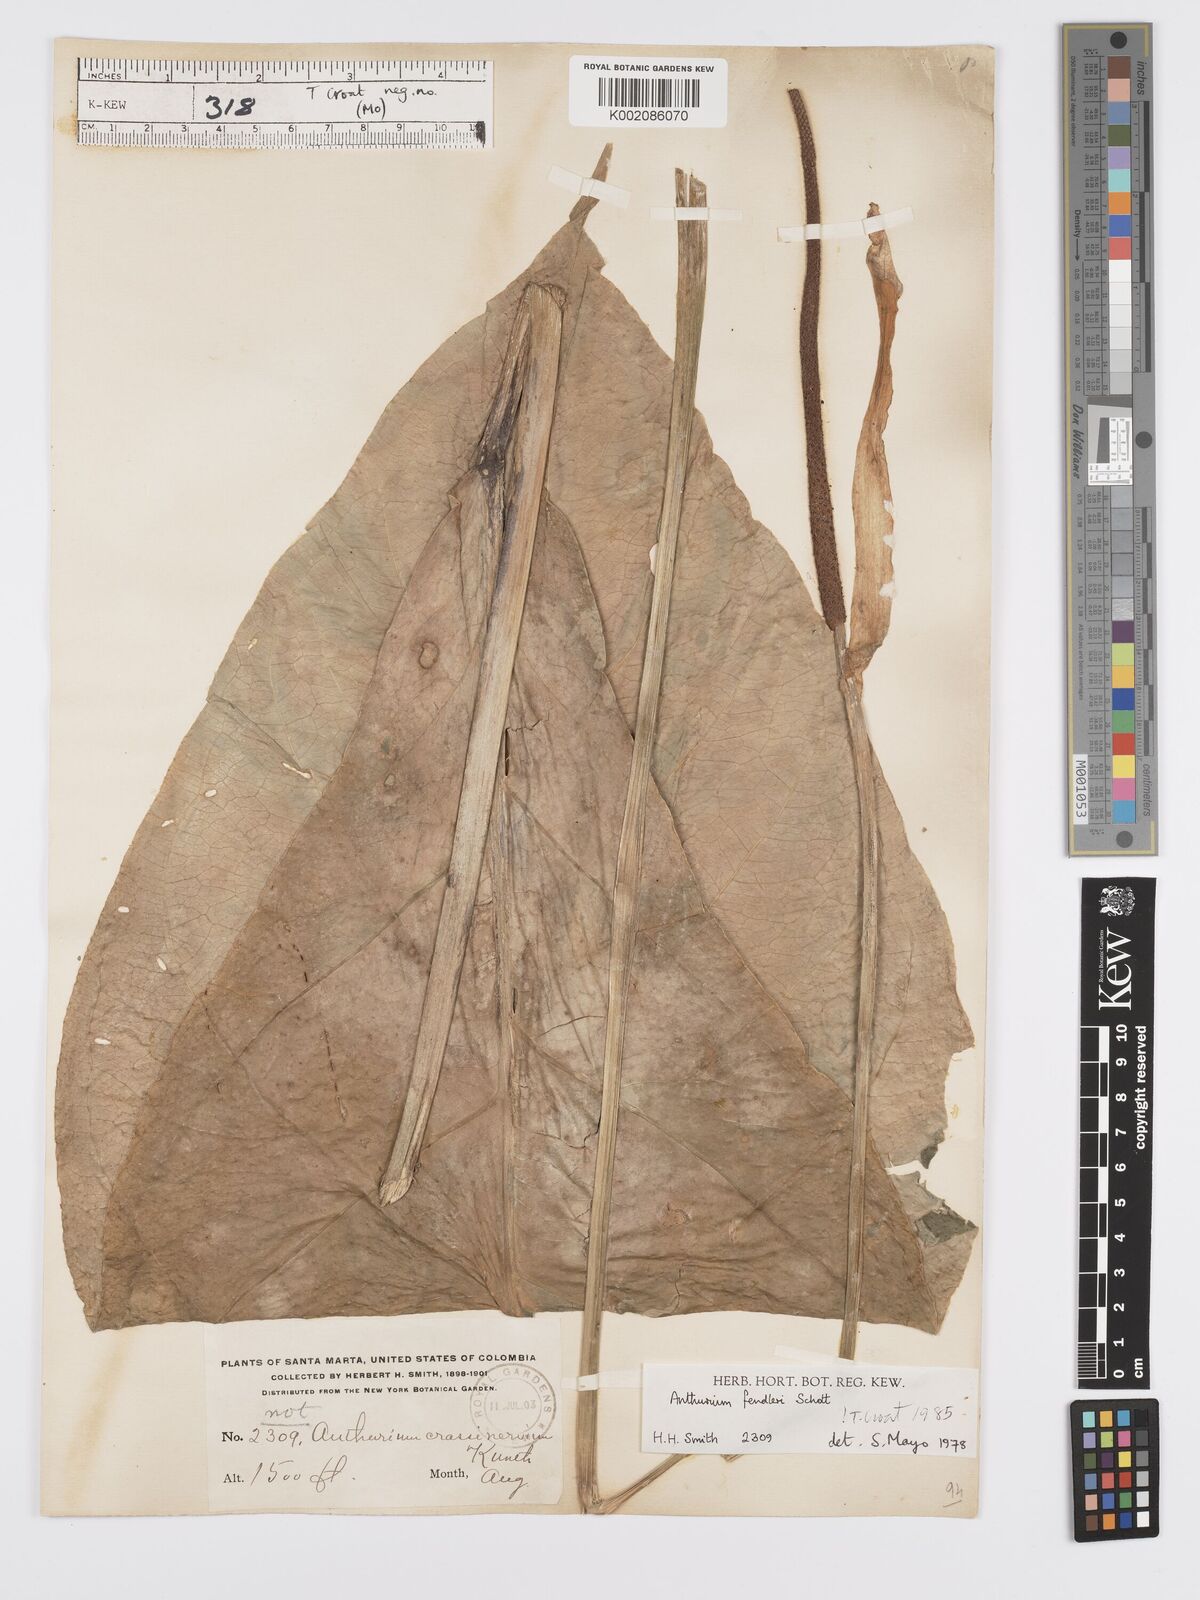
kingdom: Plantae
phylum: Tracheophyta
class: Liliopsida
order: Alismatales
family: Araceae
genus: Anthurium
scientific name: Anthurium fendleri
